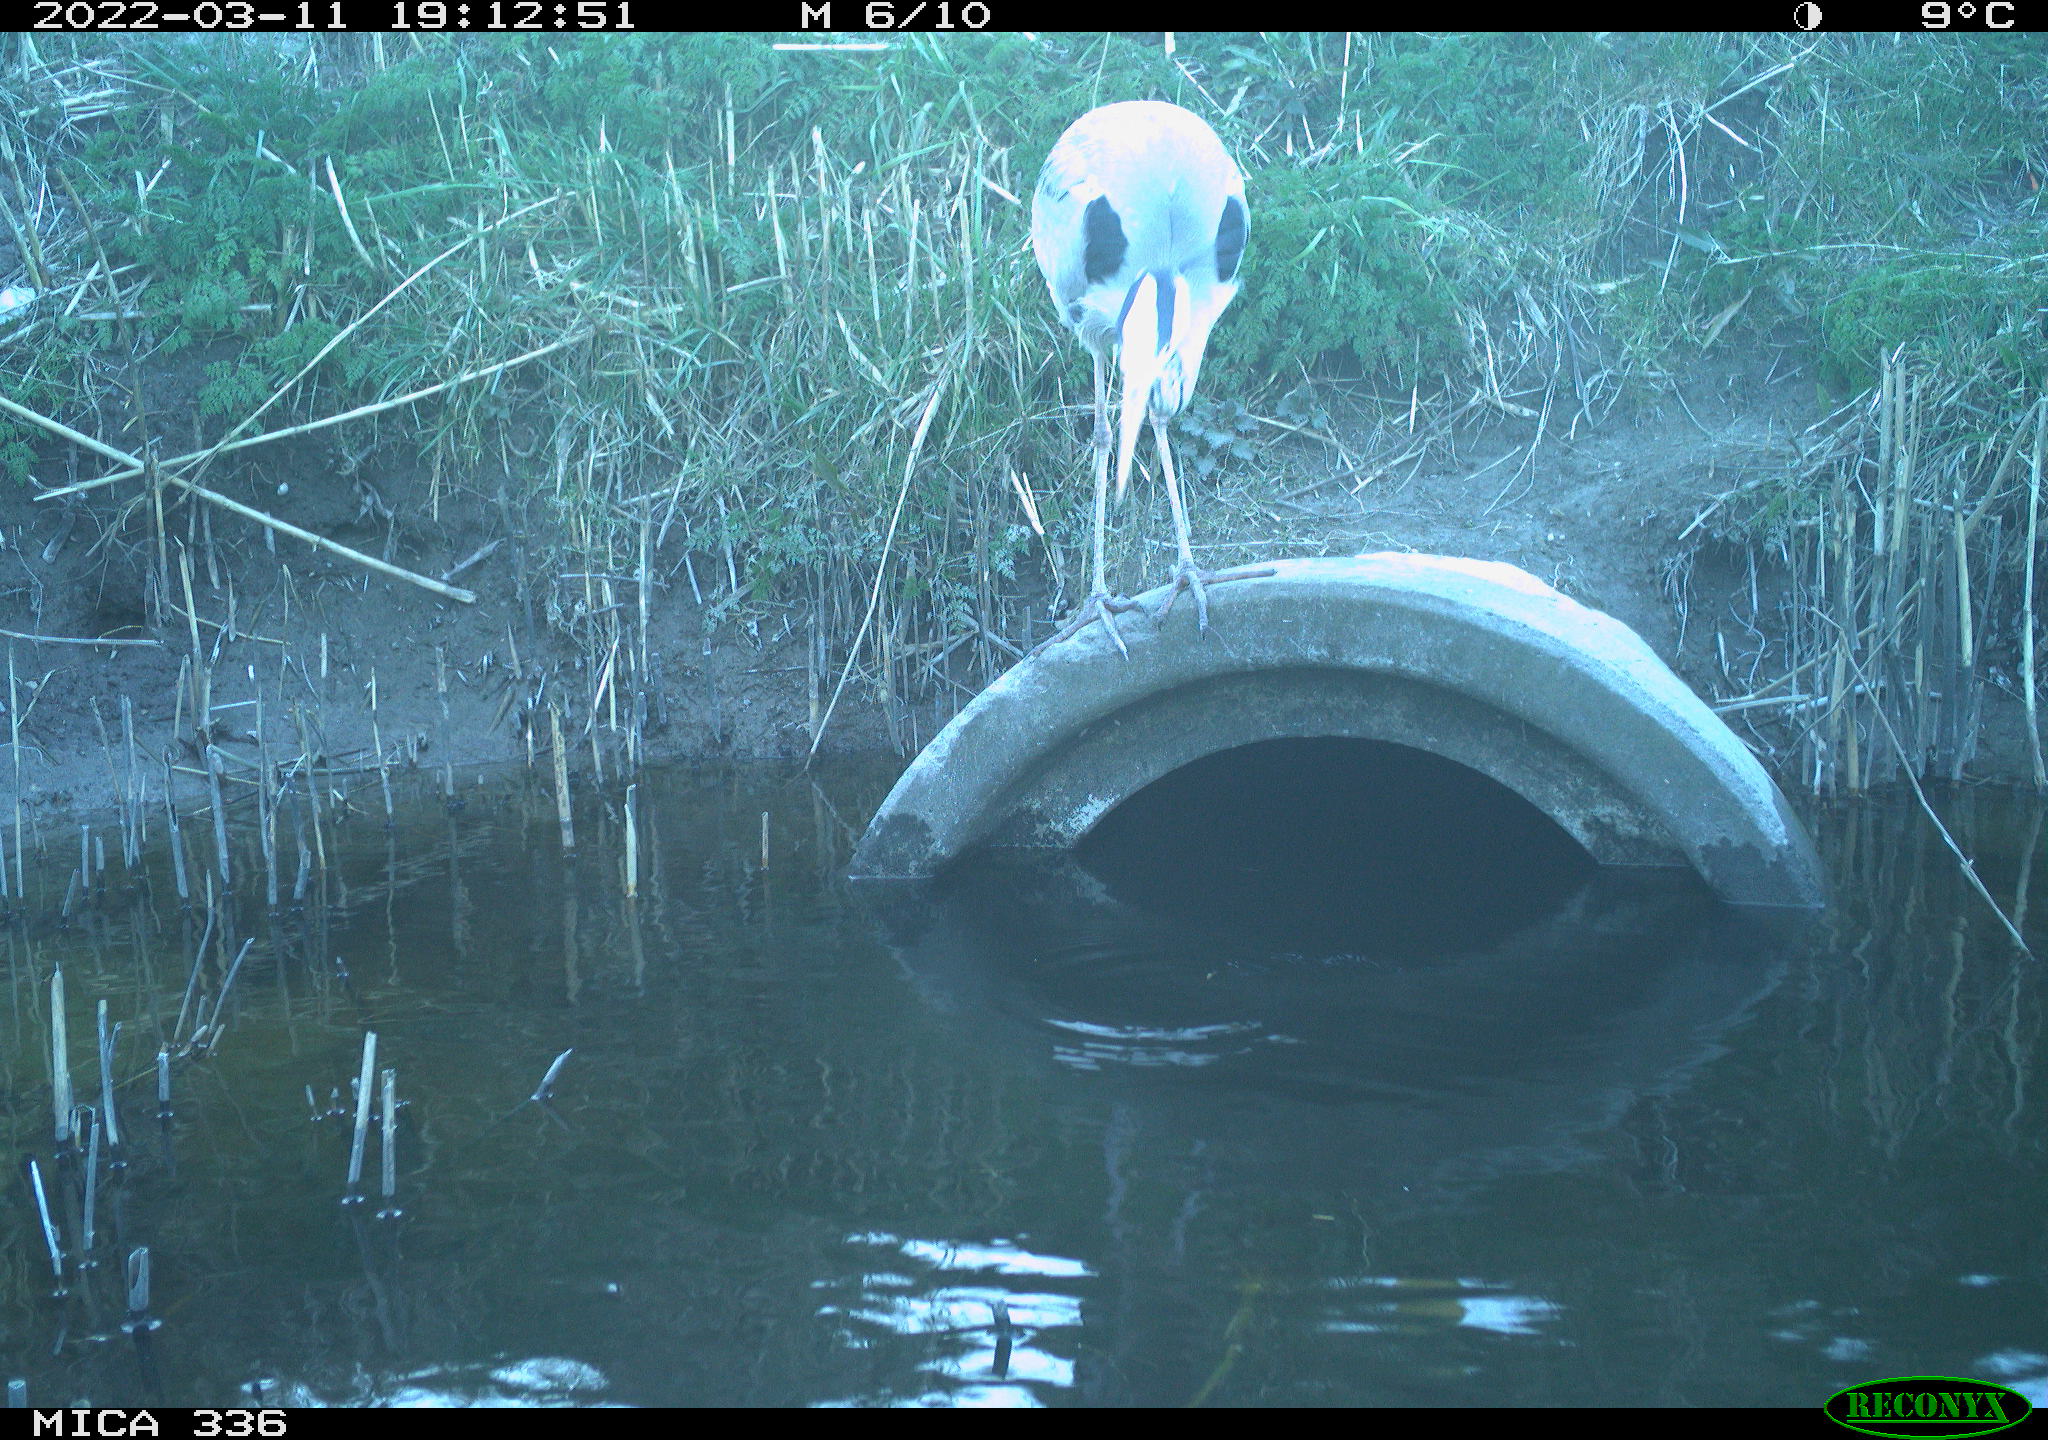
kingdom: Animalia
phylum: Chordata
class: Aves
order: Pelecaniformes
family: Ardeidae
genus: Ardea
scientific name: Ardea cinerea
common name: Grey heron
